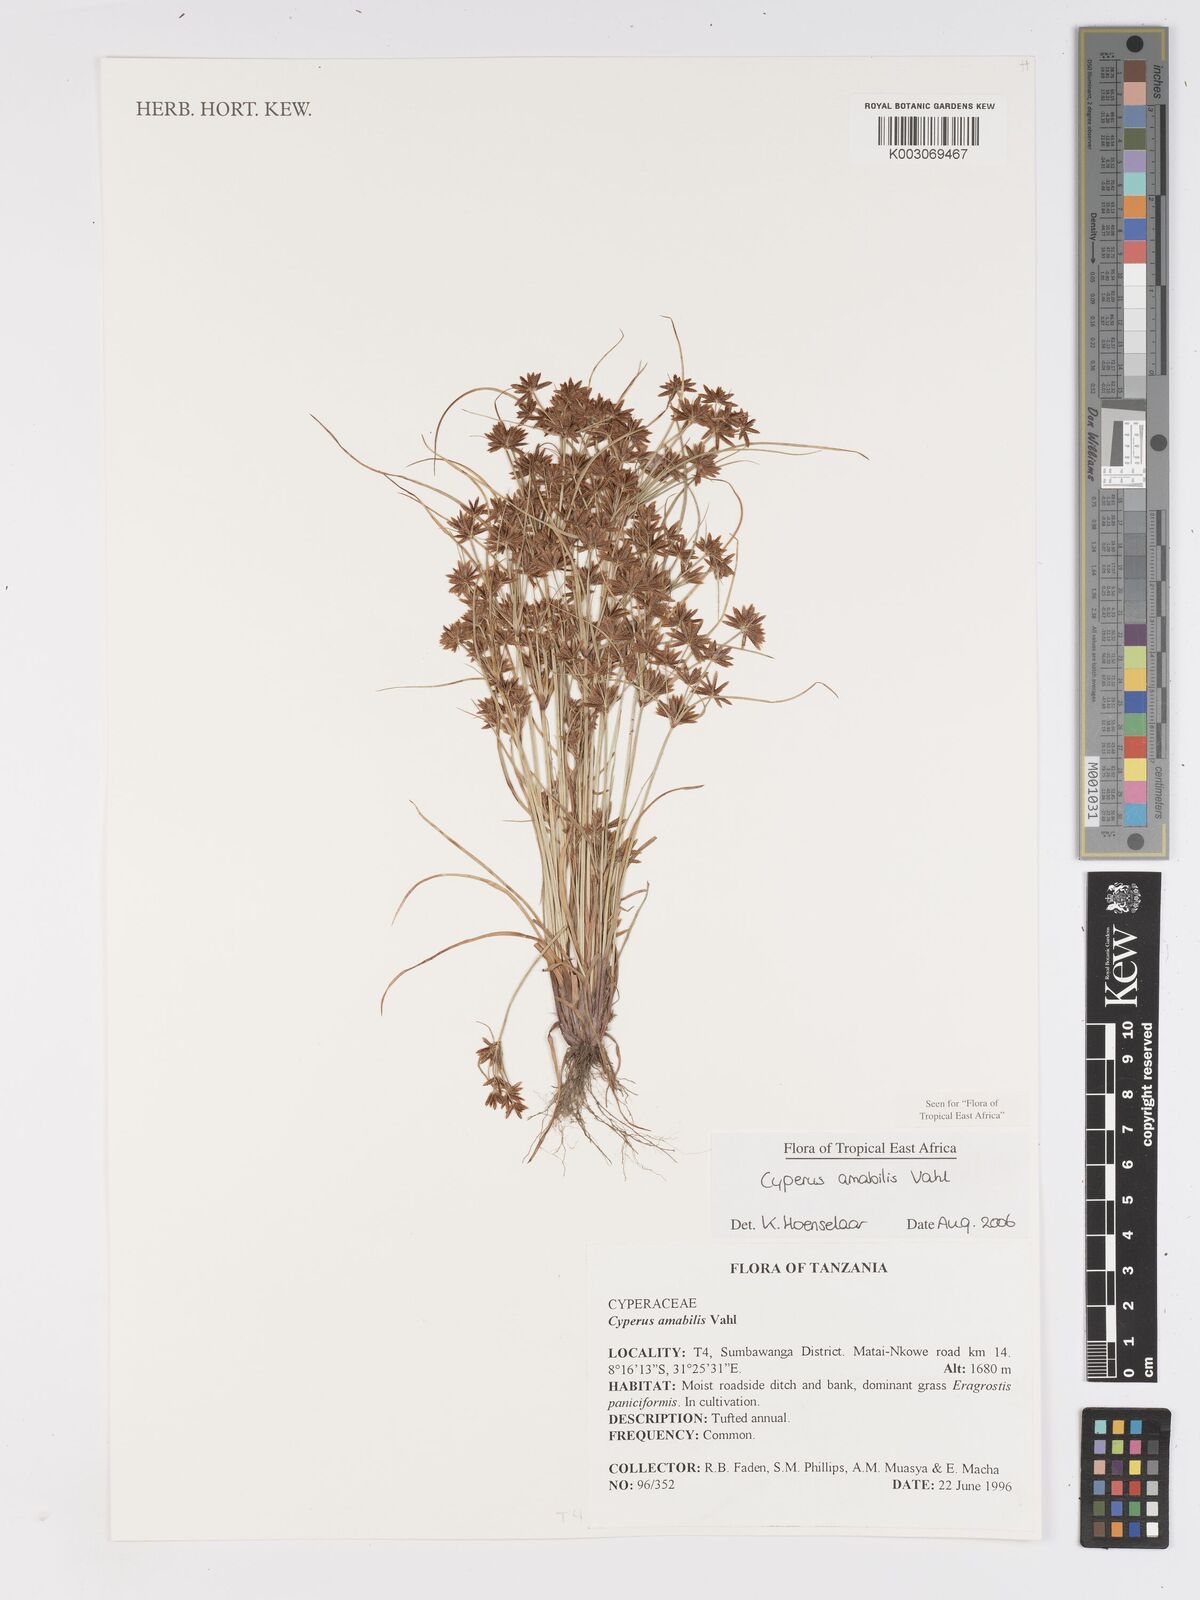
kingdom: Plantae
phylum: Tracheophyta
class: Liliopsida
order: Poales
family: Cyperaceae
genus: Cyperus
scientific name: Cyperus amabilis
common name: Foothill flat sedge
